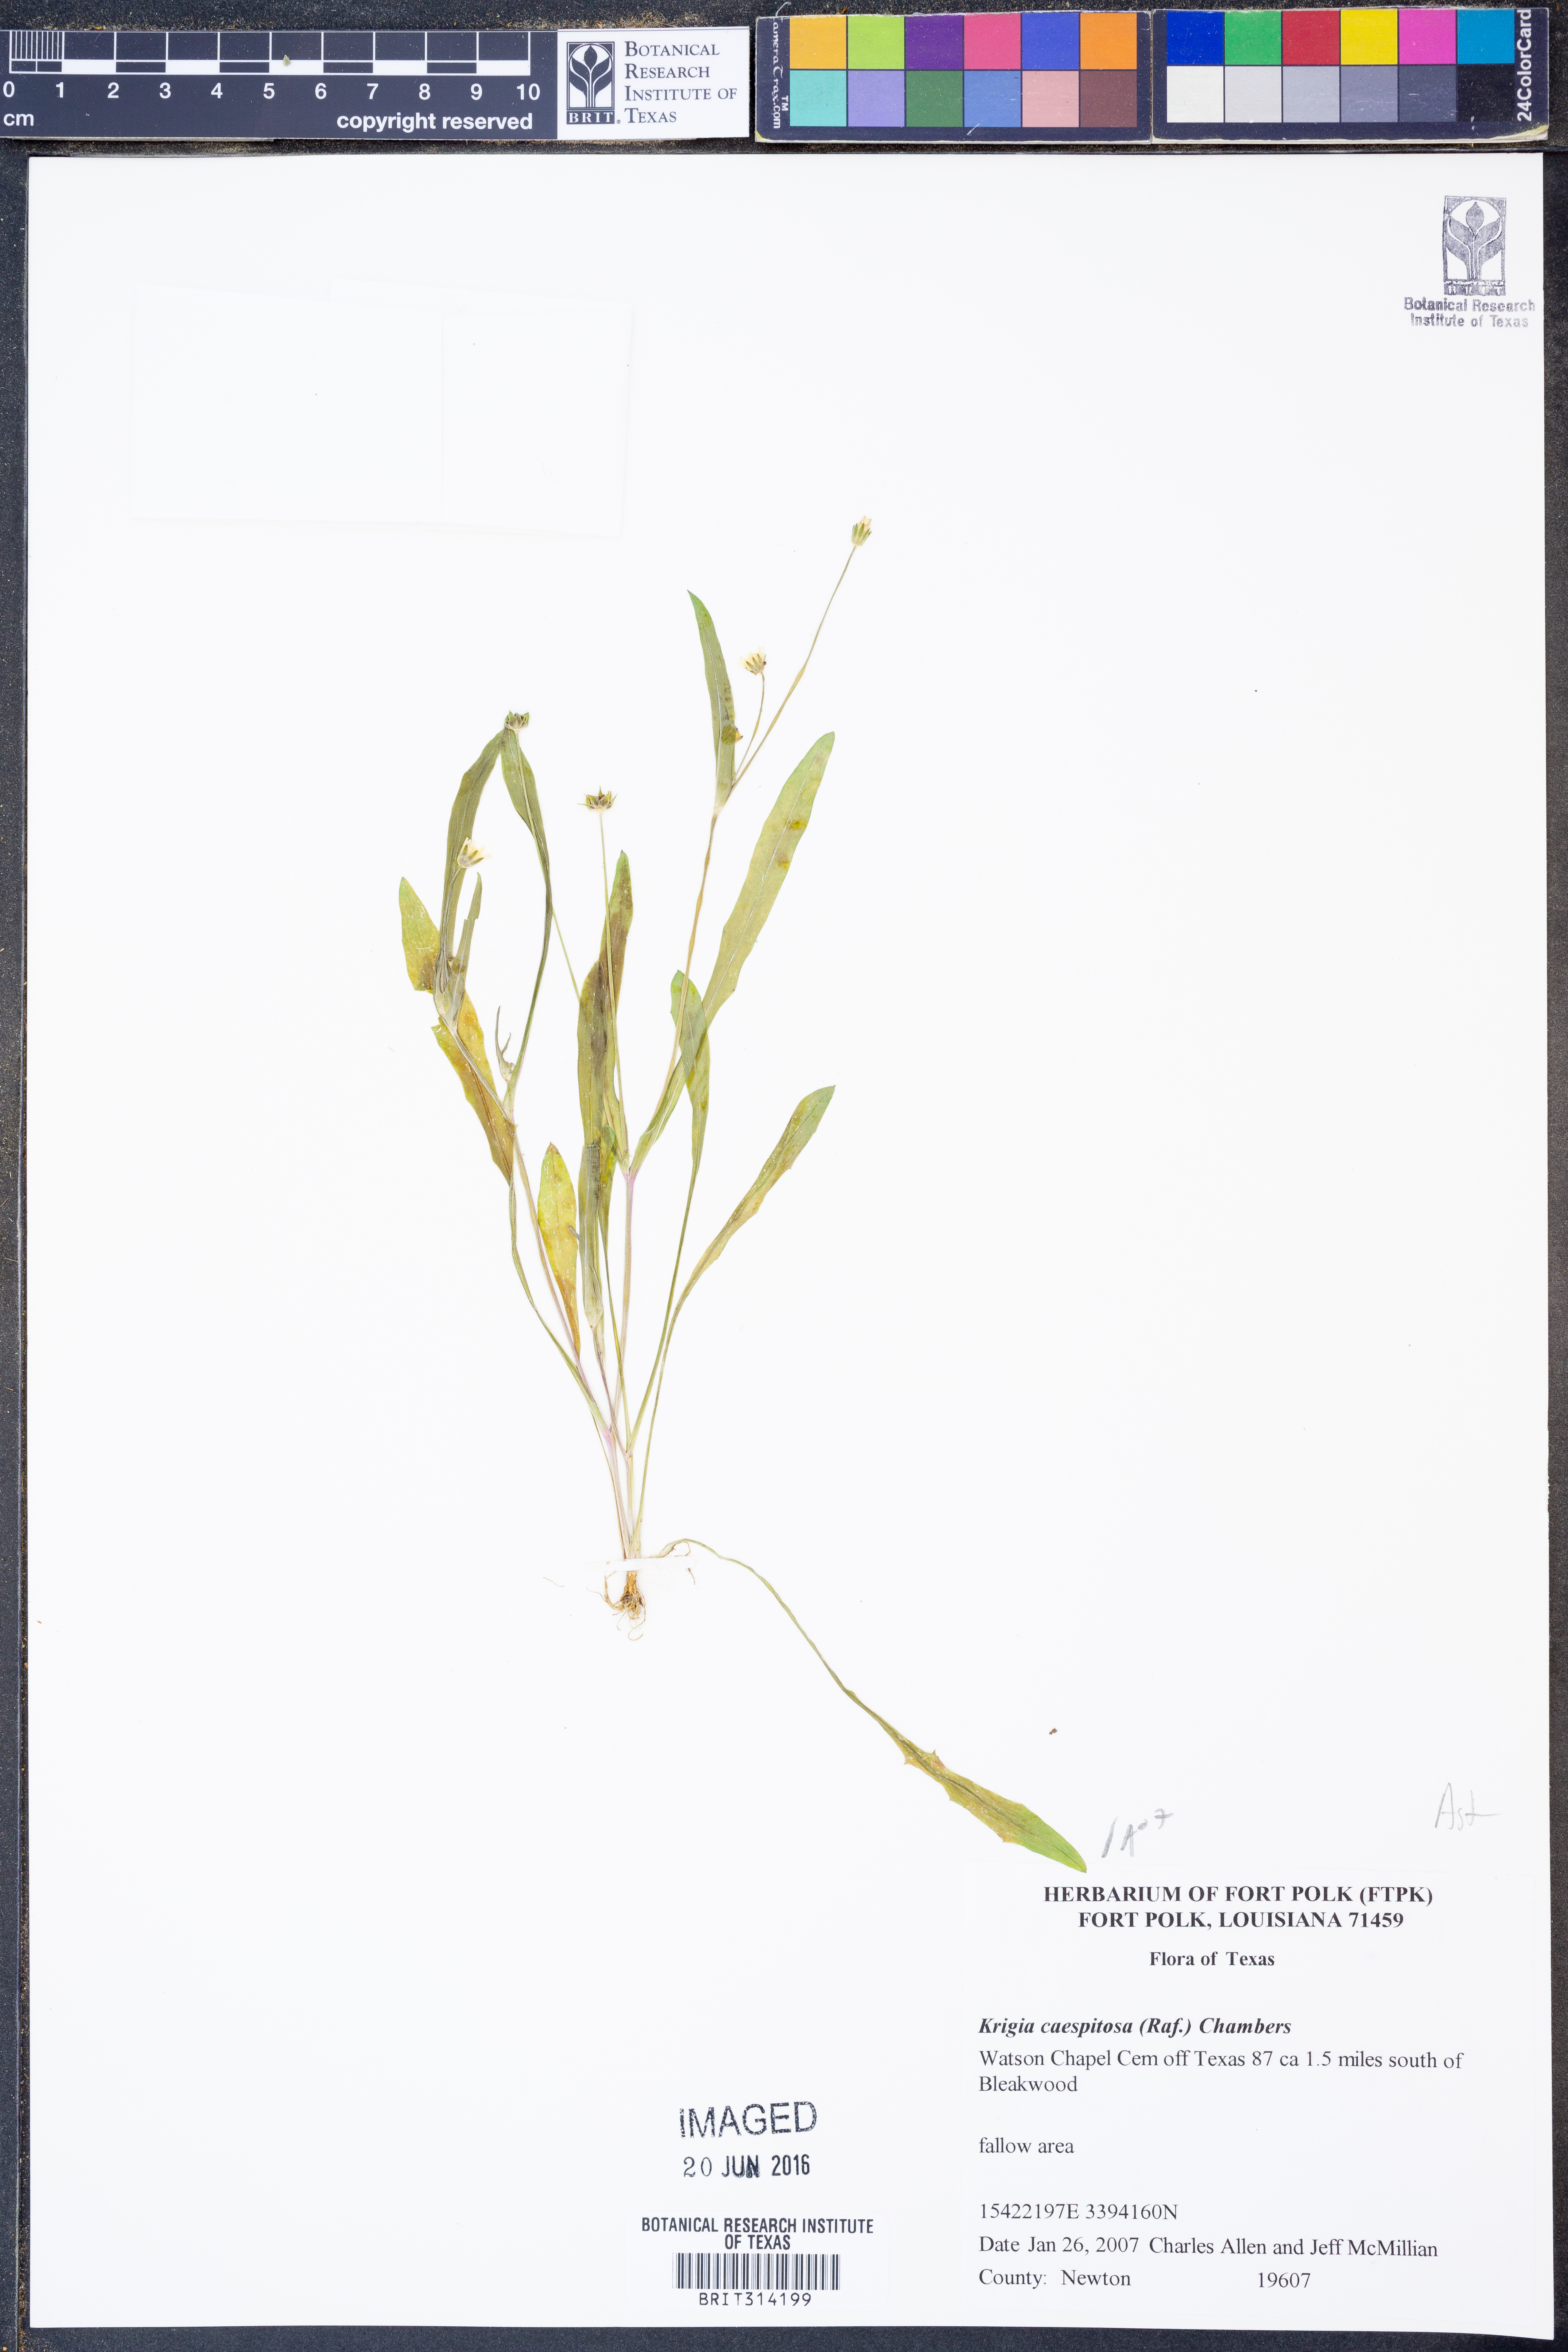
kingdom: Plantae
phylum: Tracheophyta
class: Magnoliopsida
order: Asterales
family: Asteraceae
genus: Krigia
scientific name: Krigia cespitosa
